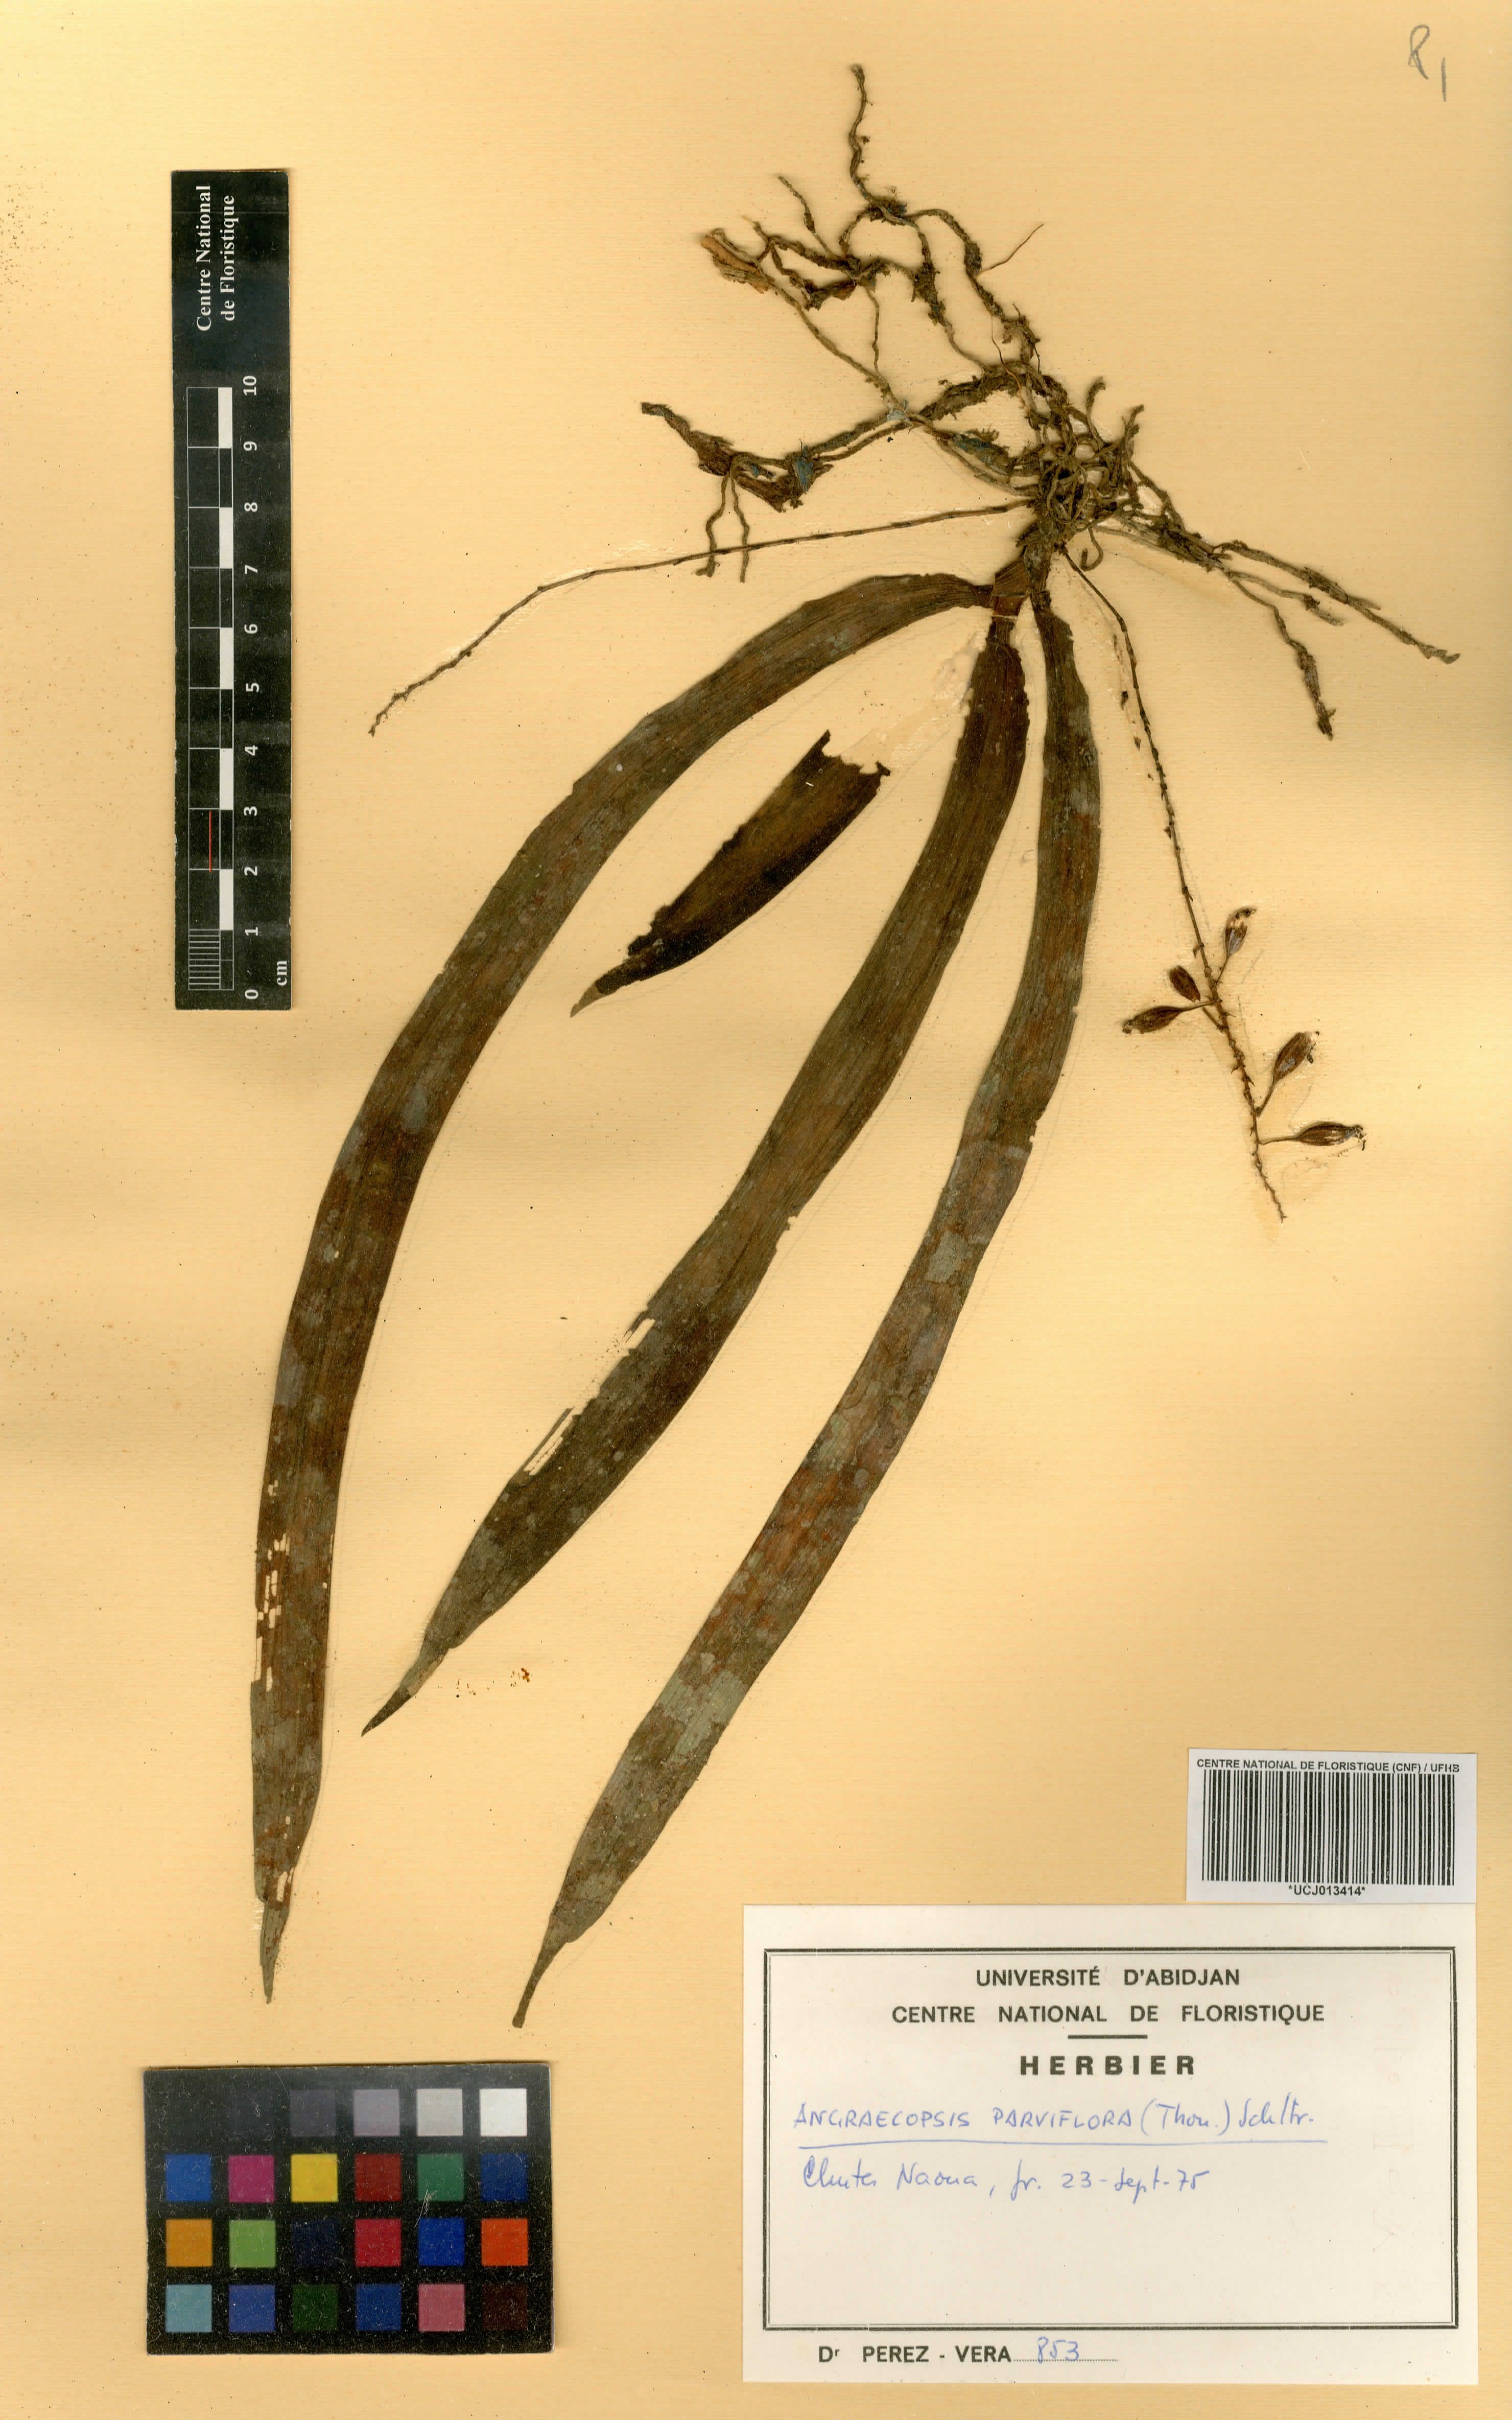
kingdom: Plantae
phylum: Tracheophyta
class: Liliopsida
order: Asparagales
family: Orchidaceae
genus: Angraecopsis
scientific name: Angraecopsis parviflora
